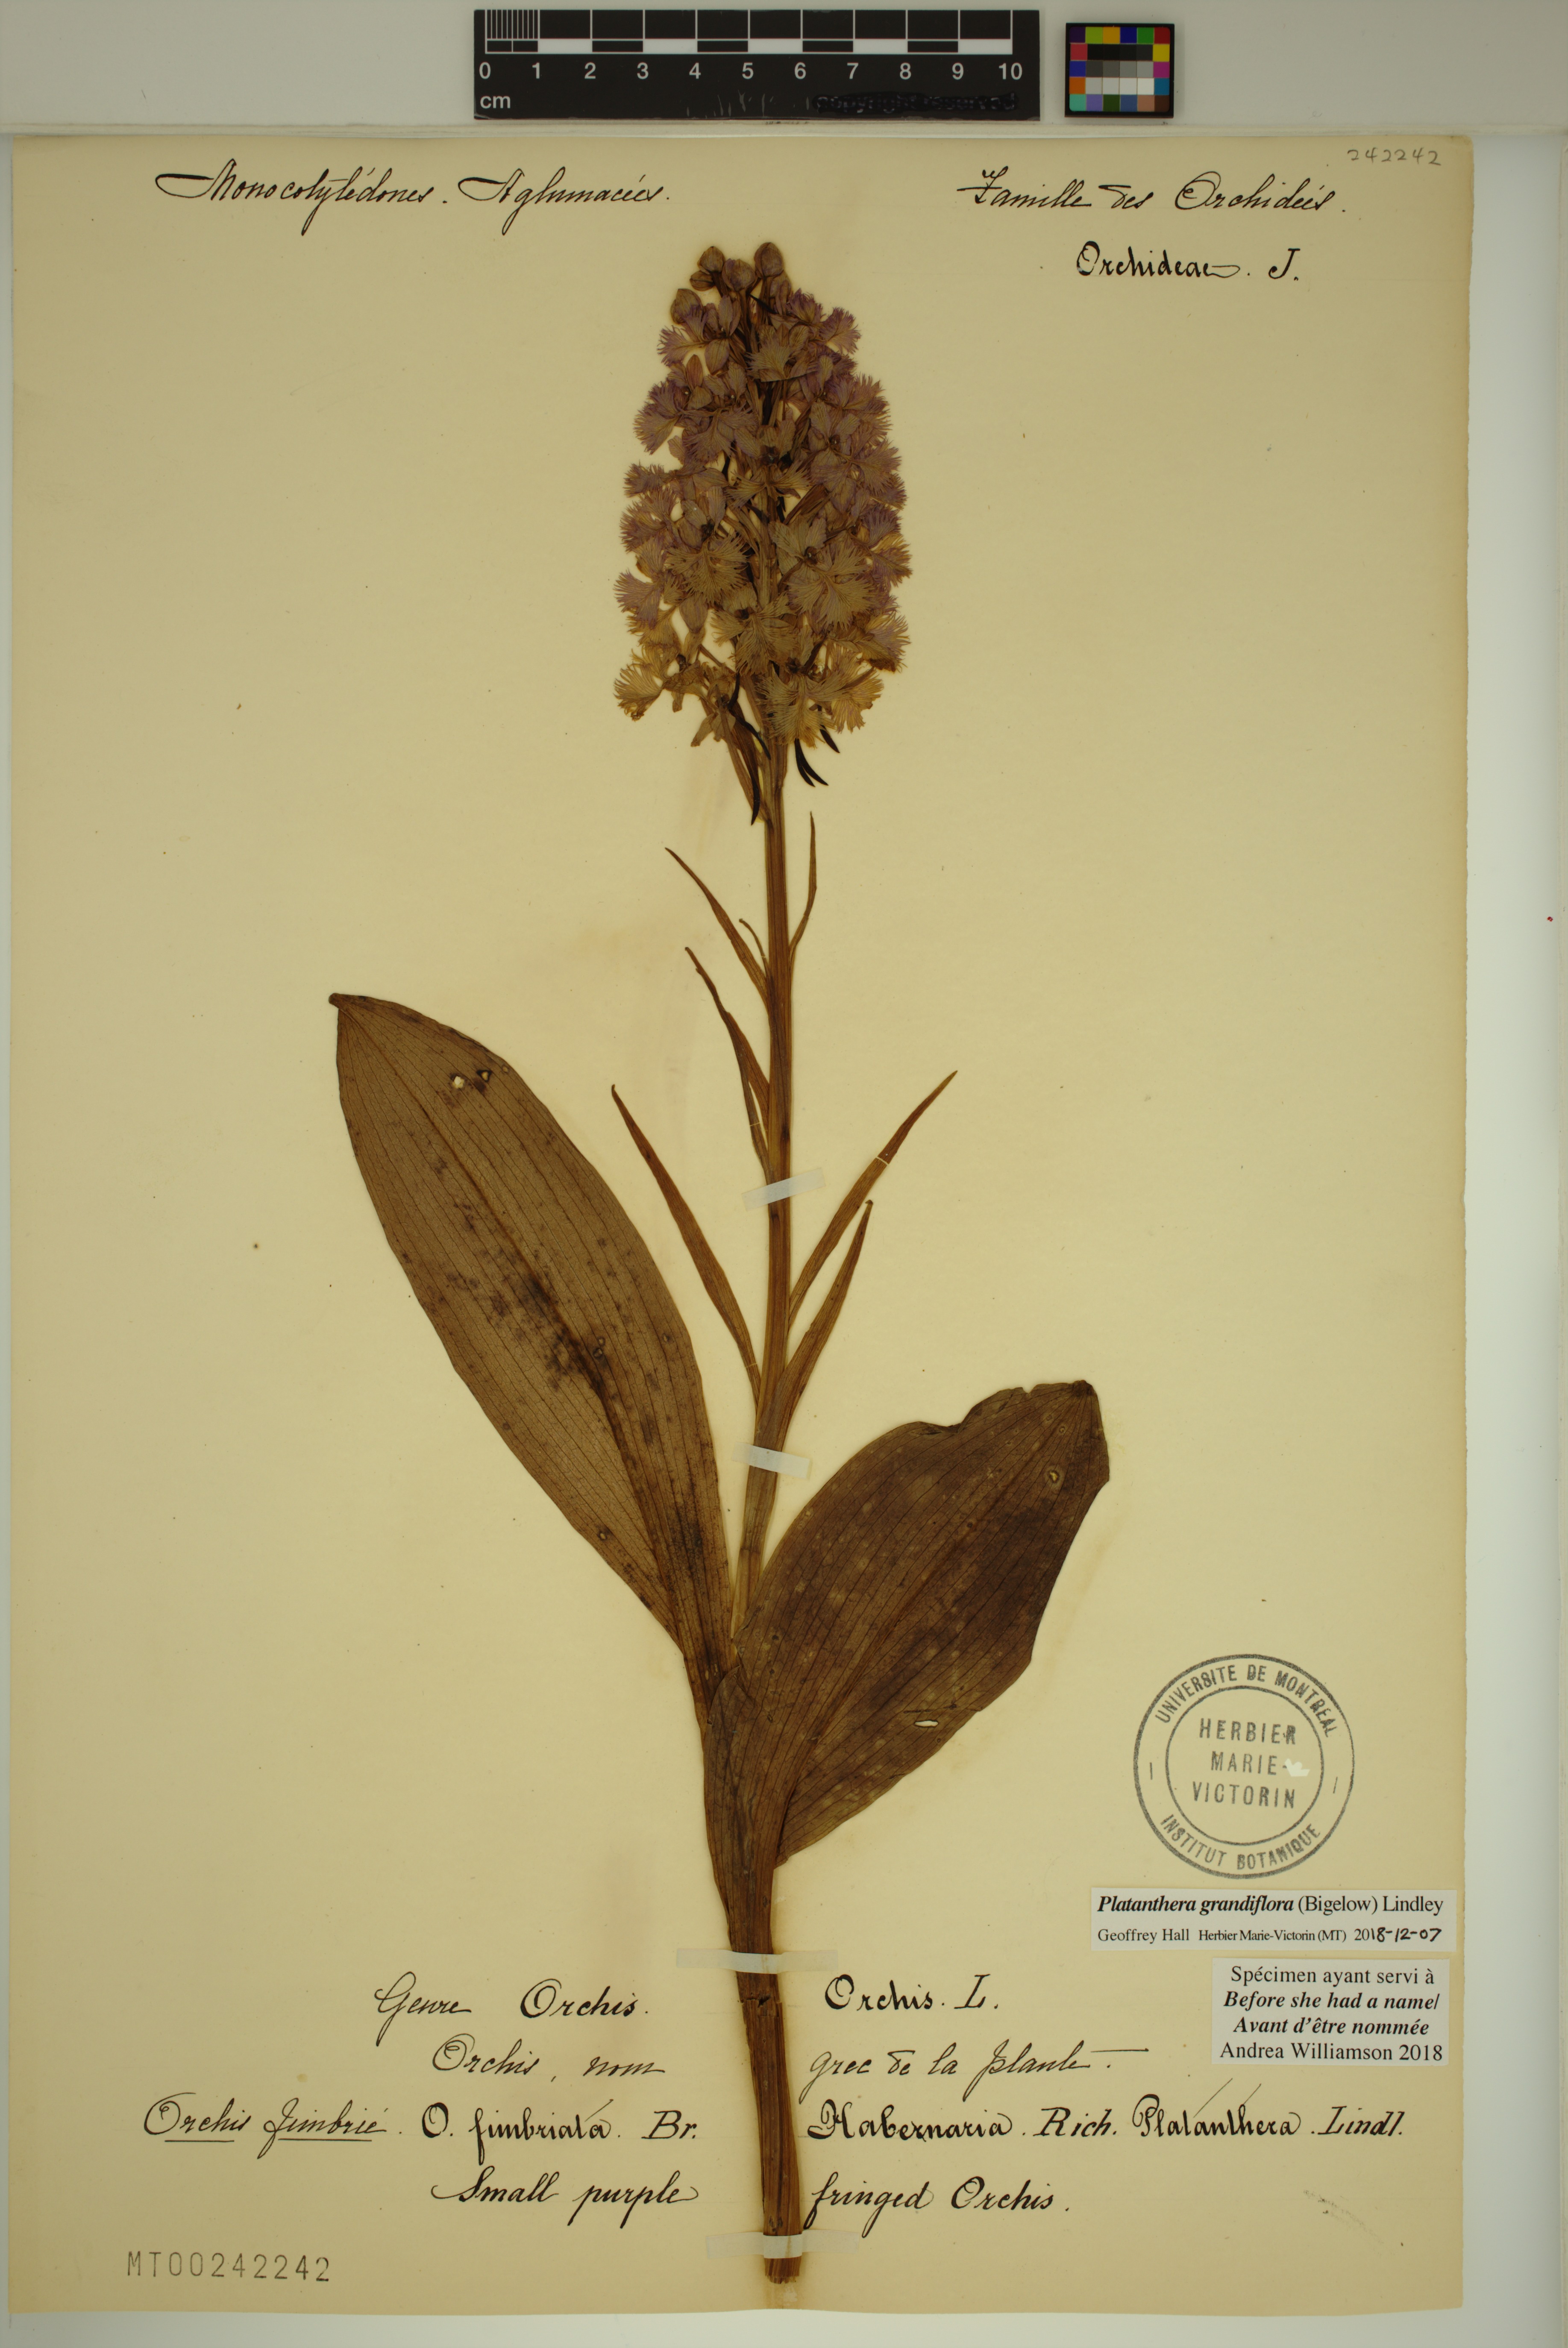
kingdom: Plantae
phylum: Tracheophyta
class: Liliopsida
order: Asparagales
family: Orchidaceae
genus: Platanthera
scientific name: Platanthera grandiflora
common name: Greater purple fringed orchid
